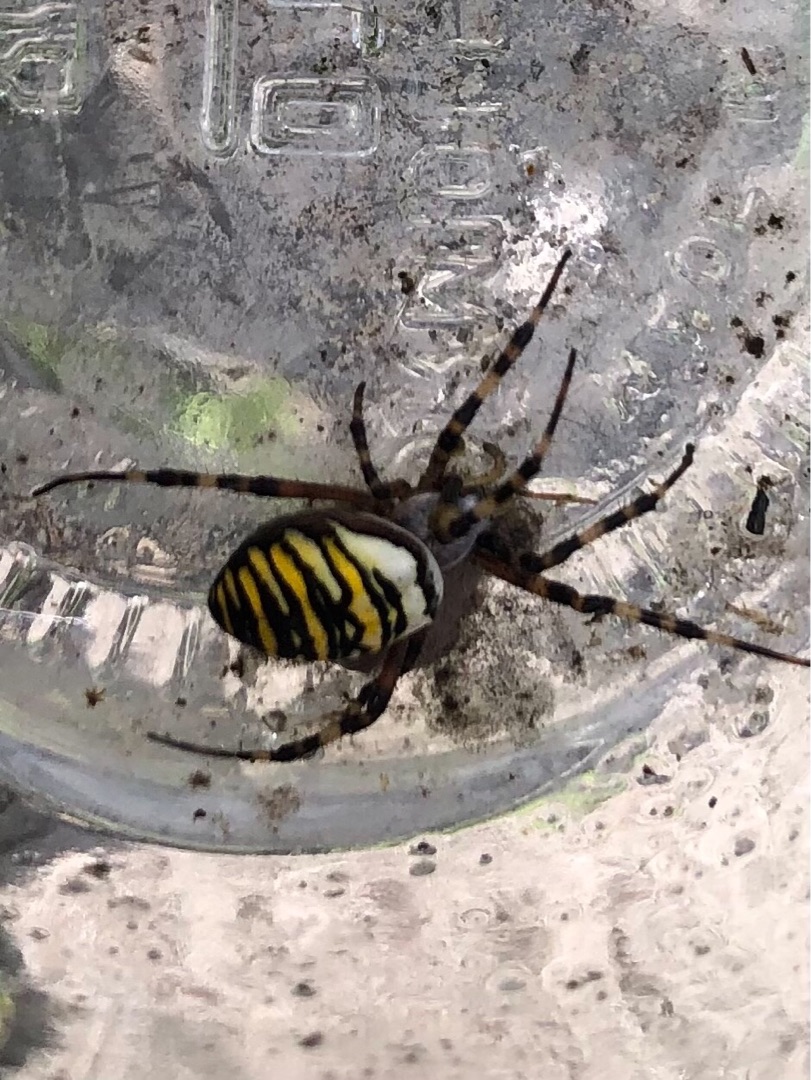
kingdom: Animalia
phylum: Arthropoda
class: Arachnida
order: Araneae
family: Araneidae
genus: Argiope
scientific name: Argiope bruennichi
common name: Hvepseedderkop
